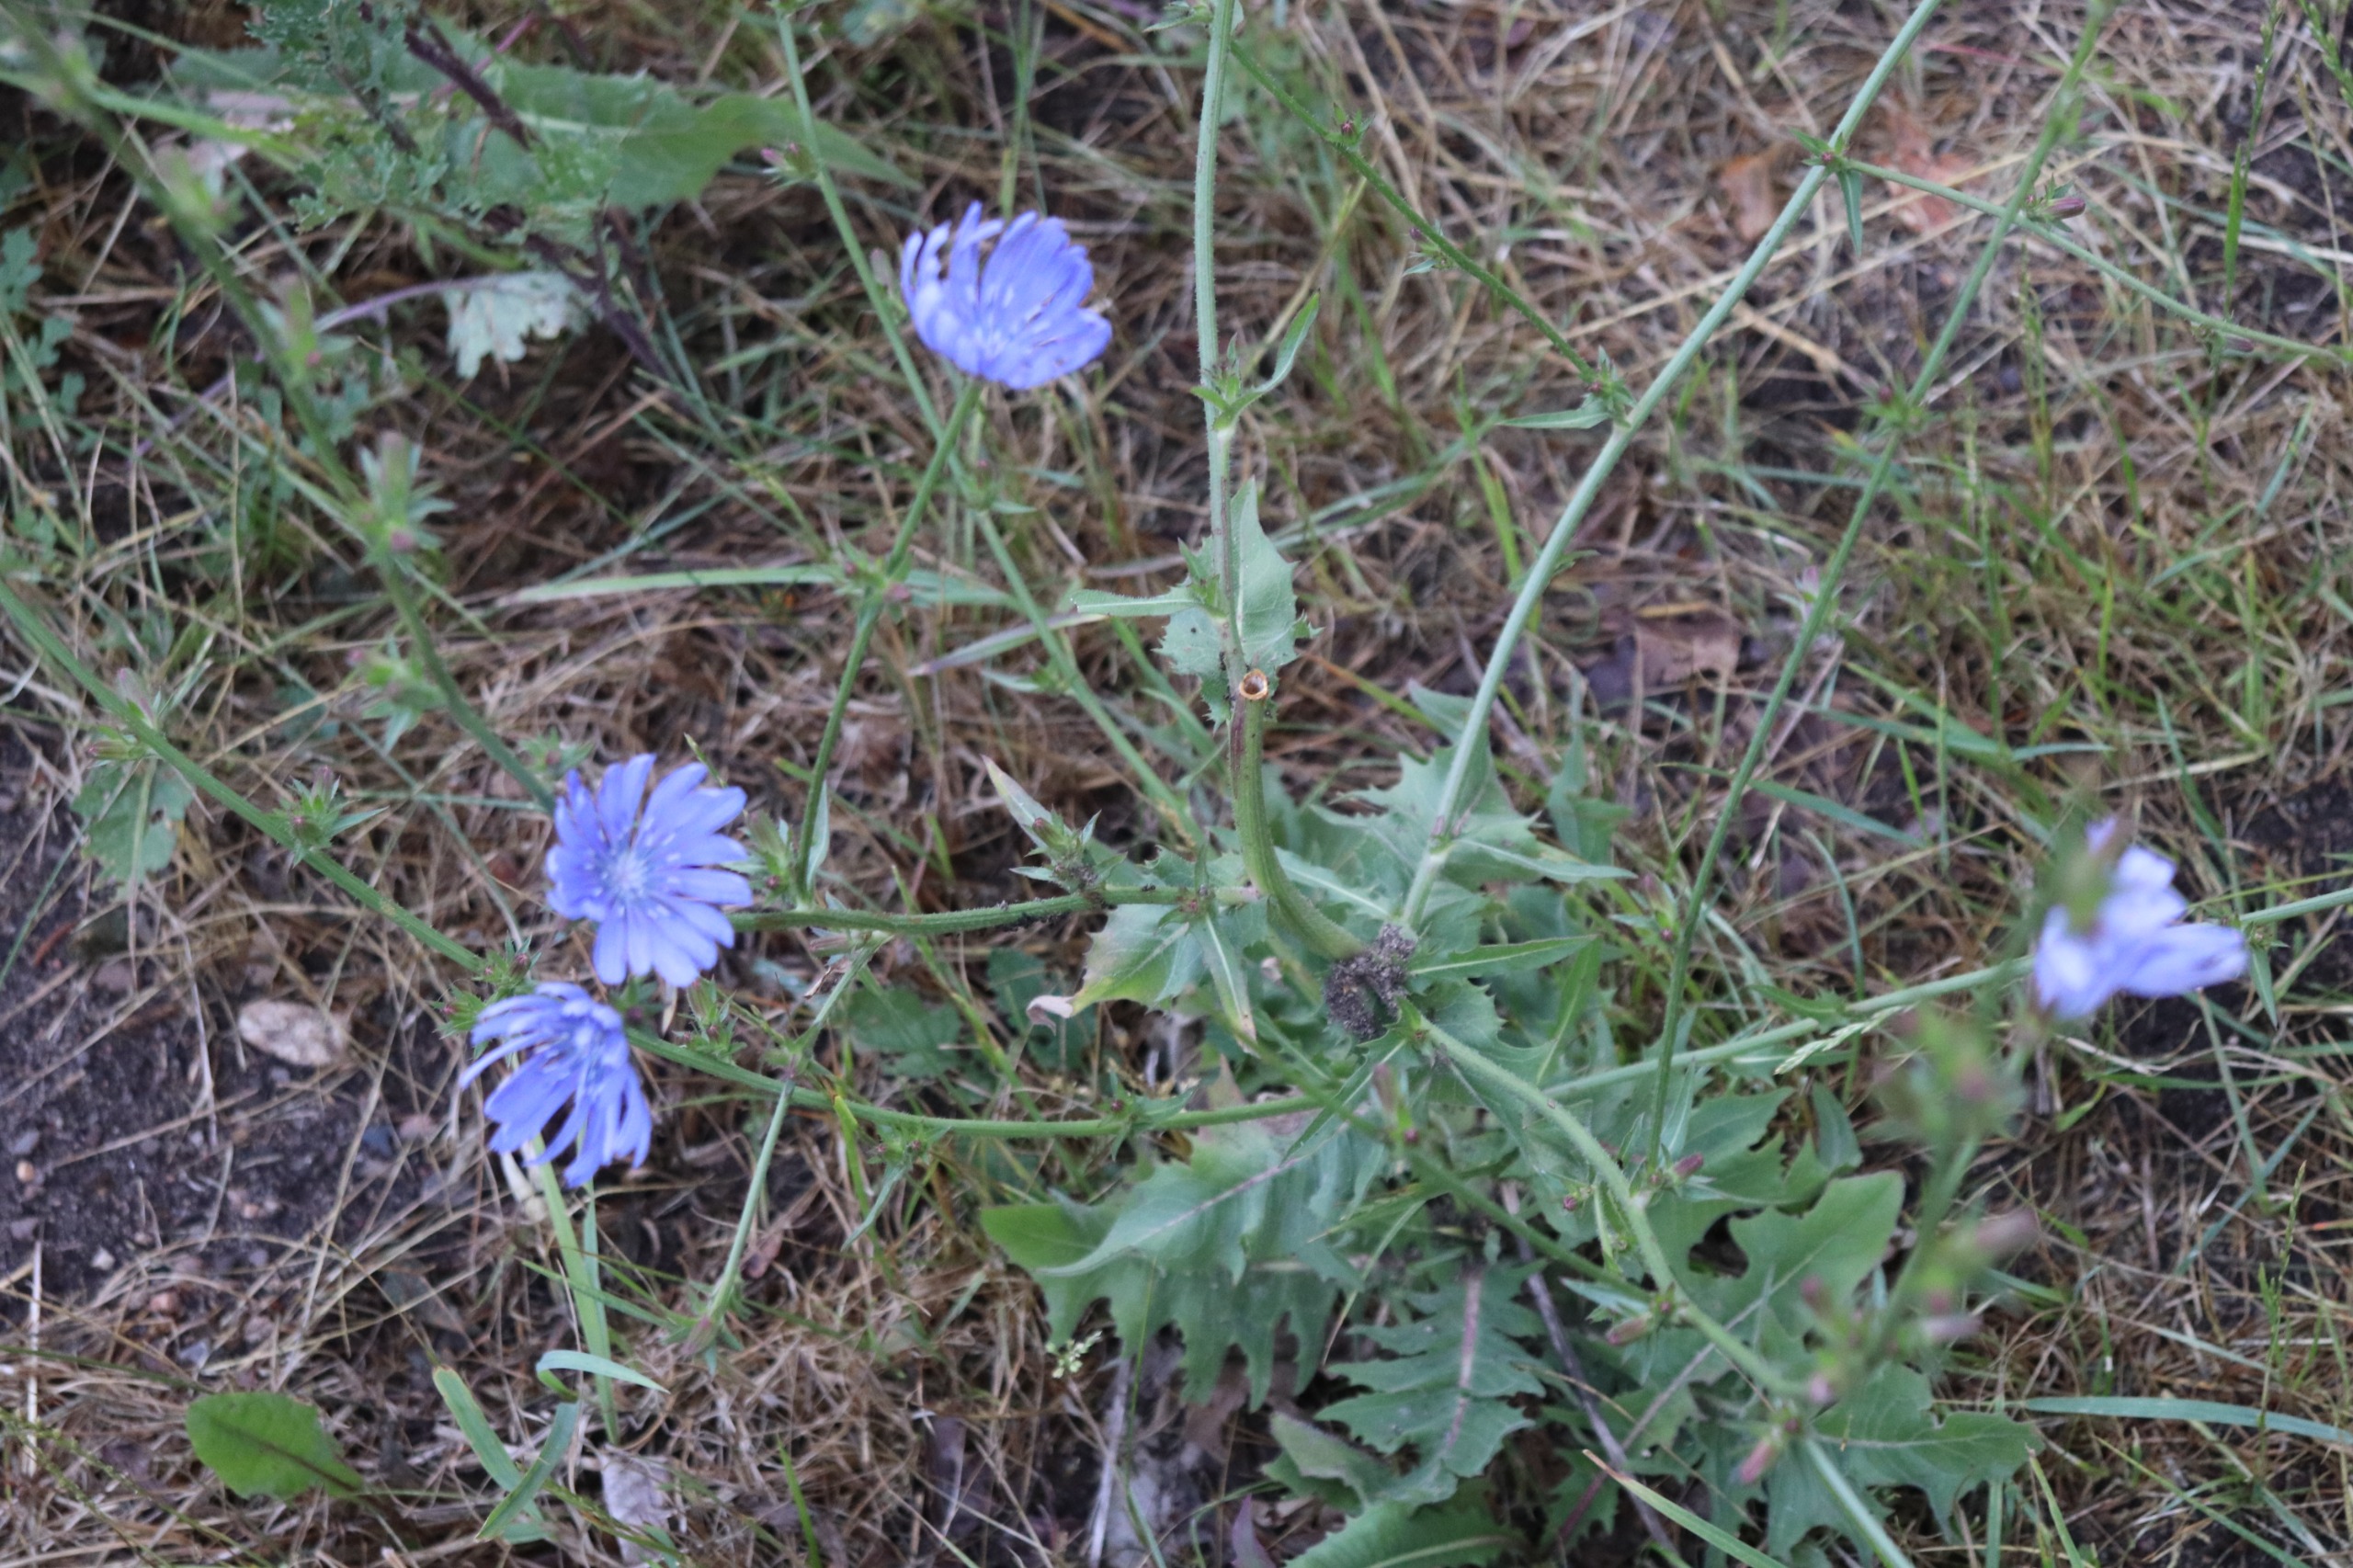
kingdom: Plantae
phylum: Tracheophyta
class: Magnoliopsida
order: Asterales
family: Asteraceae
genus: Cichorium
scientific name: Cichorium intybus
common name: Cikorie
